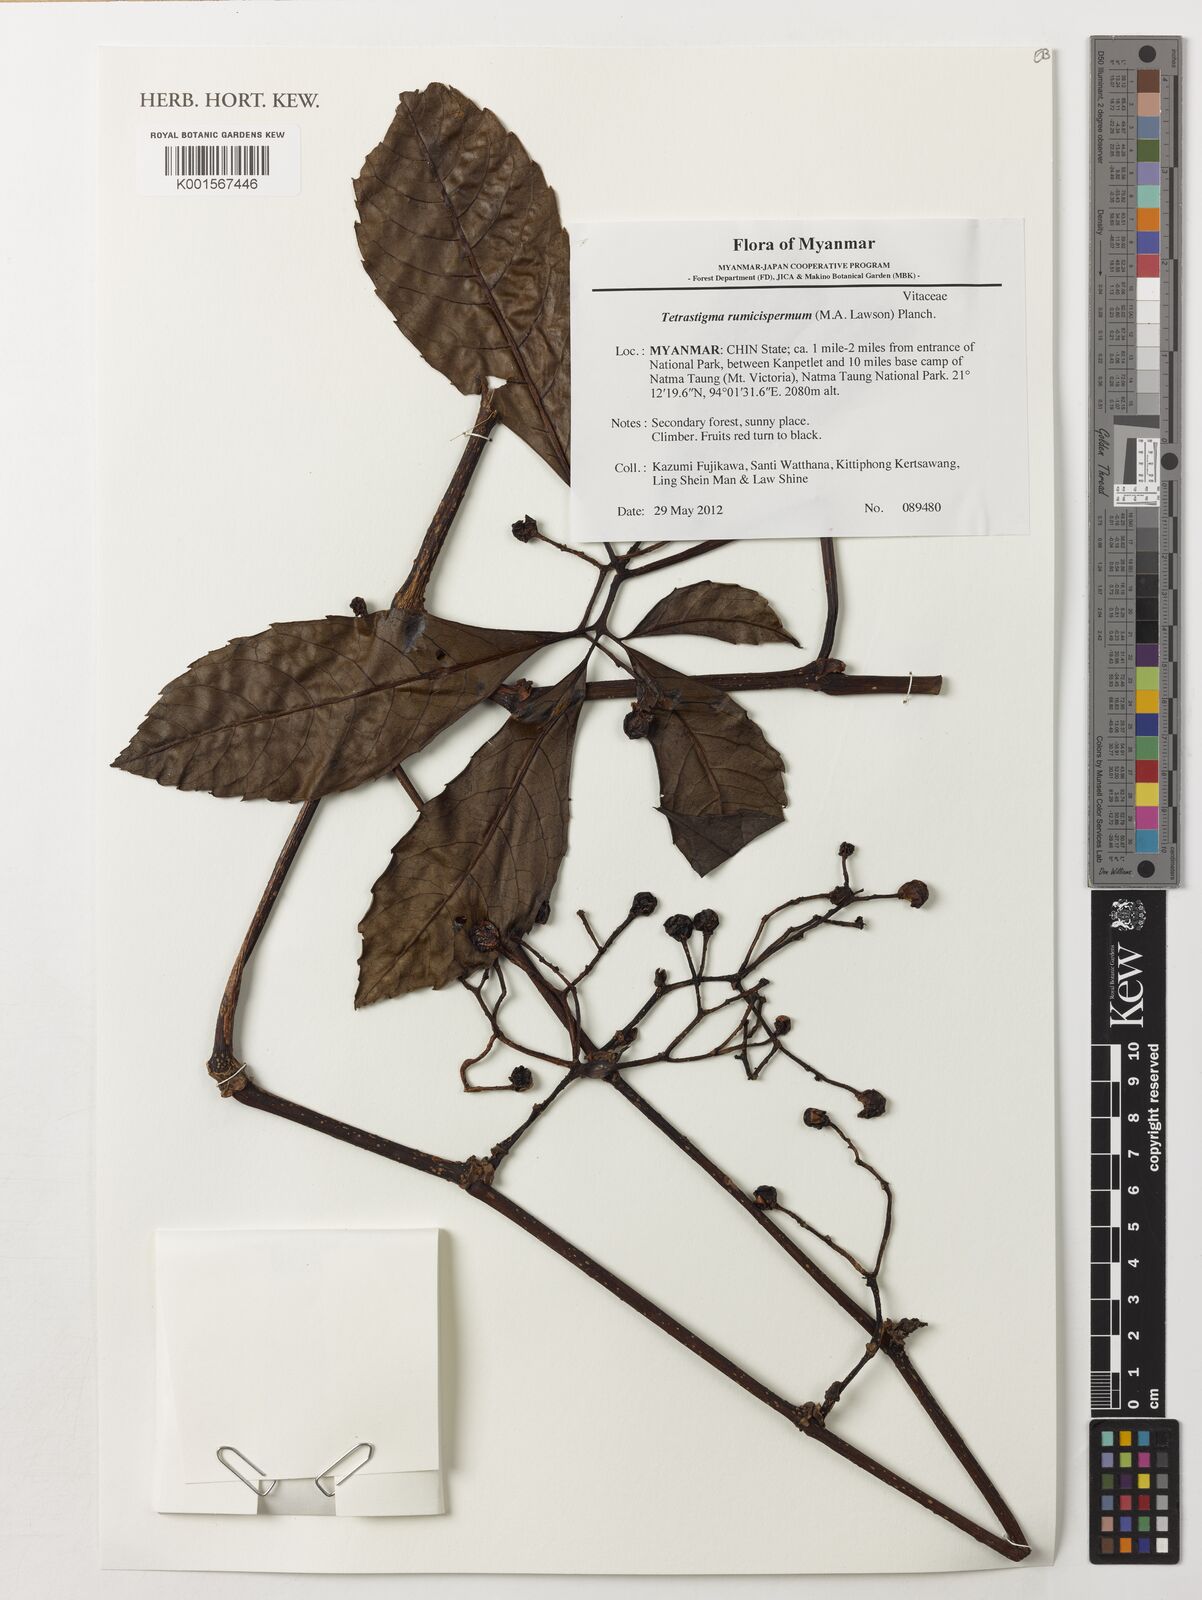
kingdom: Plantae
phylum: Tracheophyta
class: Magnoliopsida
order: Vitales
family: Vitaceae
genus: Tetrastigma
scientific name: Tetrastigma rumicispermum
